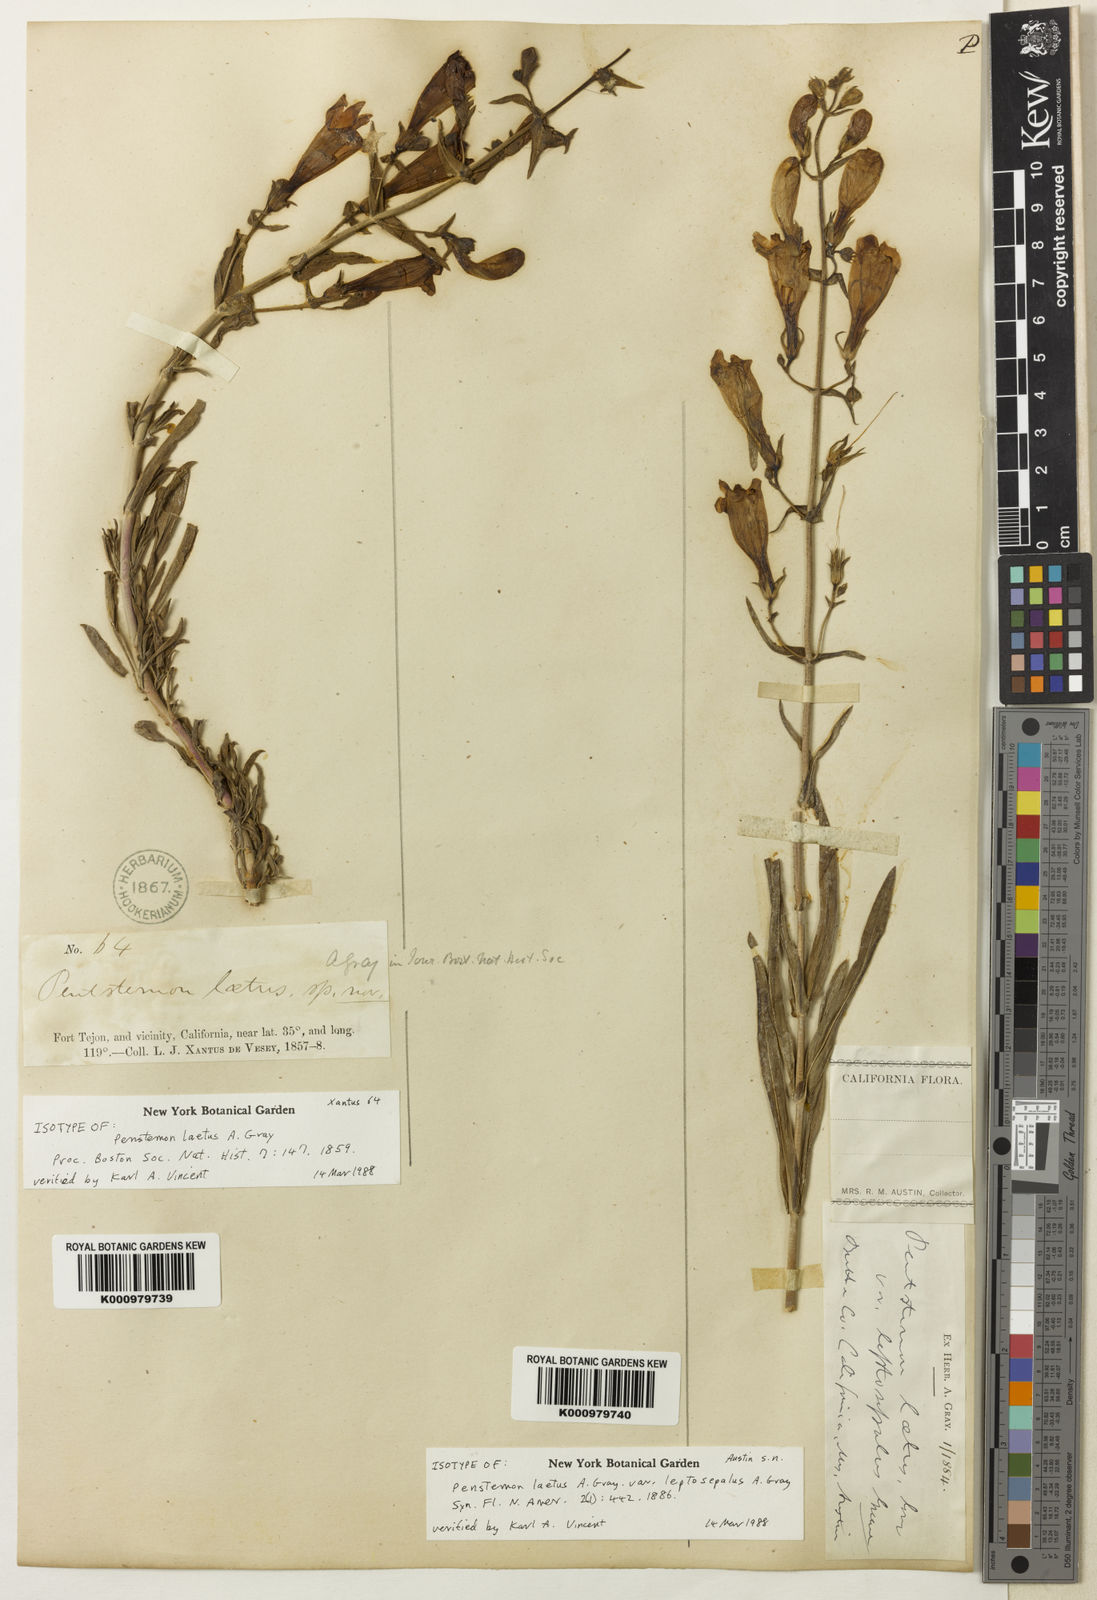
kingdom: Plantae
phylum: Tracheophyta
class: Magnoliopsida
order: Lamiales
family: Plantaginaceae
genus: Penstemon
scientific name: Penstemon
